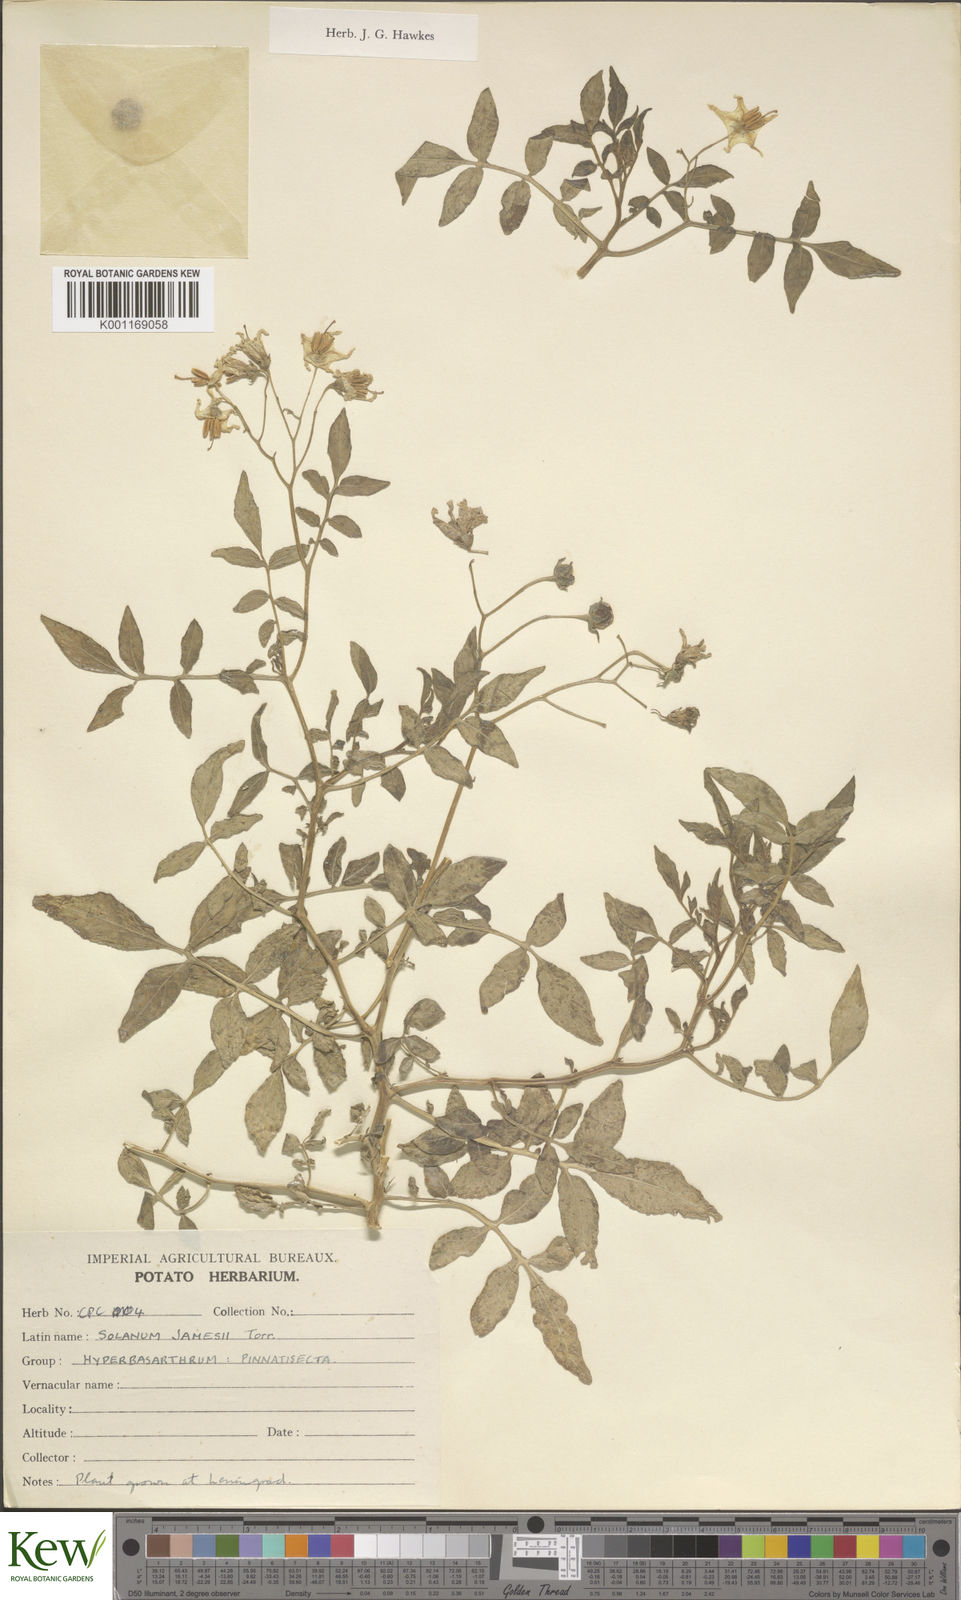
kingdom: Plantae
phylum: Tracheophyta
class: Magnoliopsida
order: Solanales
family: Solanaceae
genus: Solanum
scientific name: Solanum jamesii
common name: Wild potato
